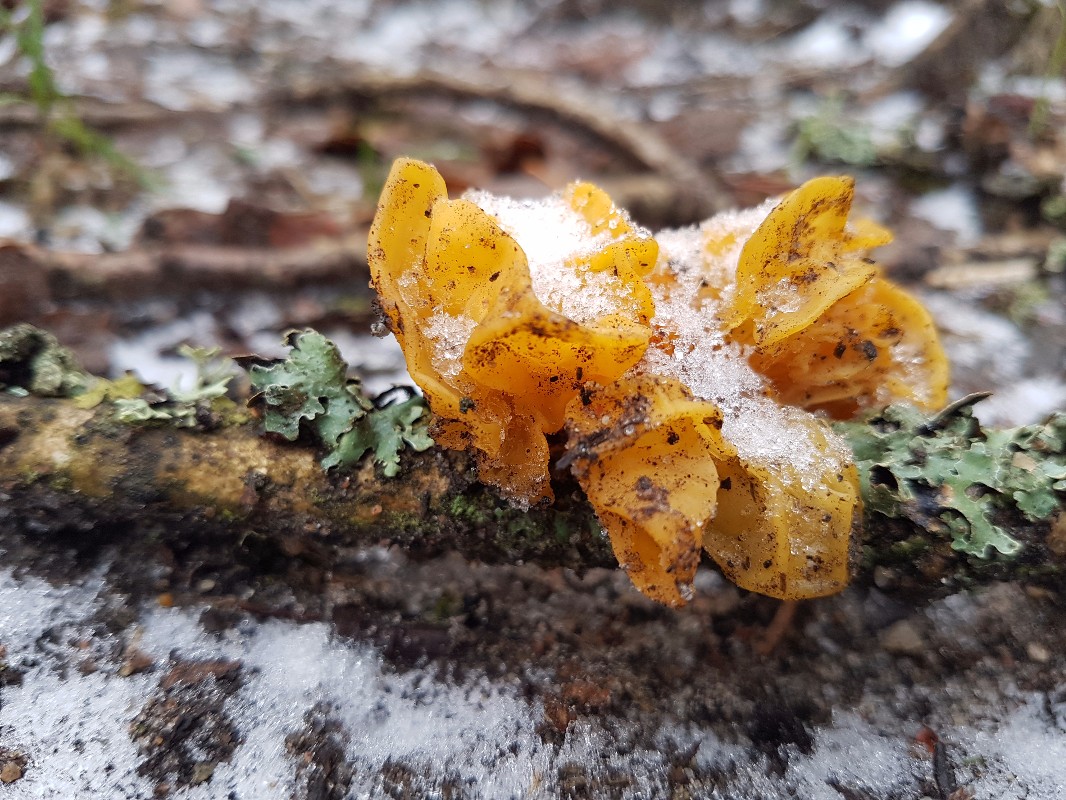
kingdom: Fungi
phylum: Basidiomycota
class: Tremellomycetes
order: Tremellales
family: Tremellaceae
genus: Tremella
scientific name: Tremella mesenterica
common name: gul bævresvamp
